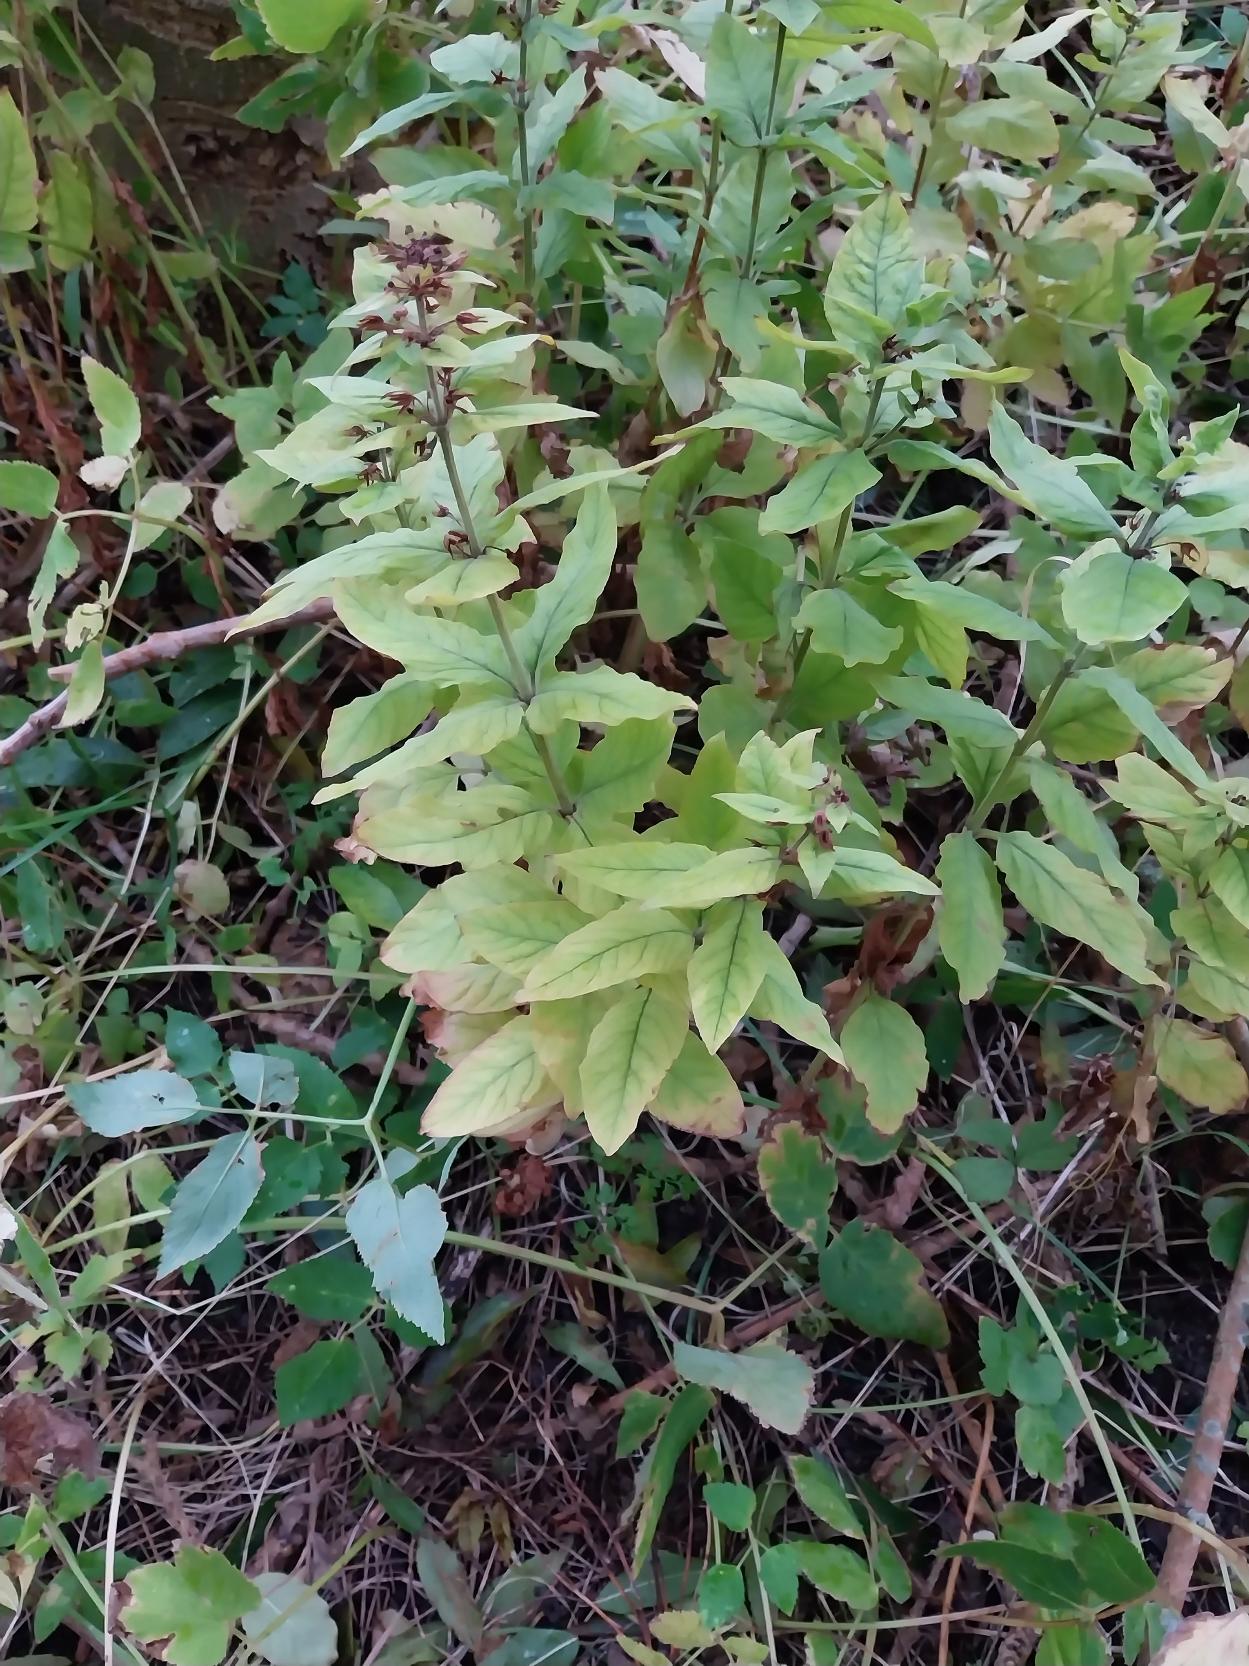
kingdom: Plantae
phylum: Tracheophyta
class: Magnoliopsida
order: Ericales
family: Primulaceae
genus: Lysimachia
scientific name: Lysimachia punctata
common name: Prikbladet fredløs
